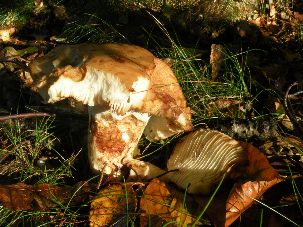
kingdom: Fungi
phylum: Basidiomycota
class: Agaricomycetes
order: Russulales
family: Russulaceae
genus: Russula
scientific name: Russula fragrantissima
